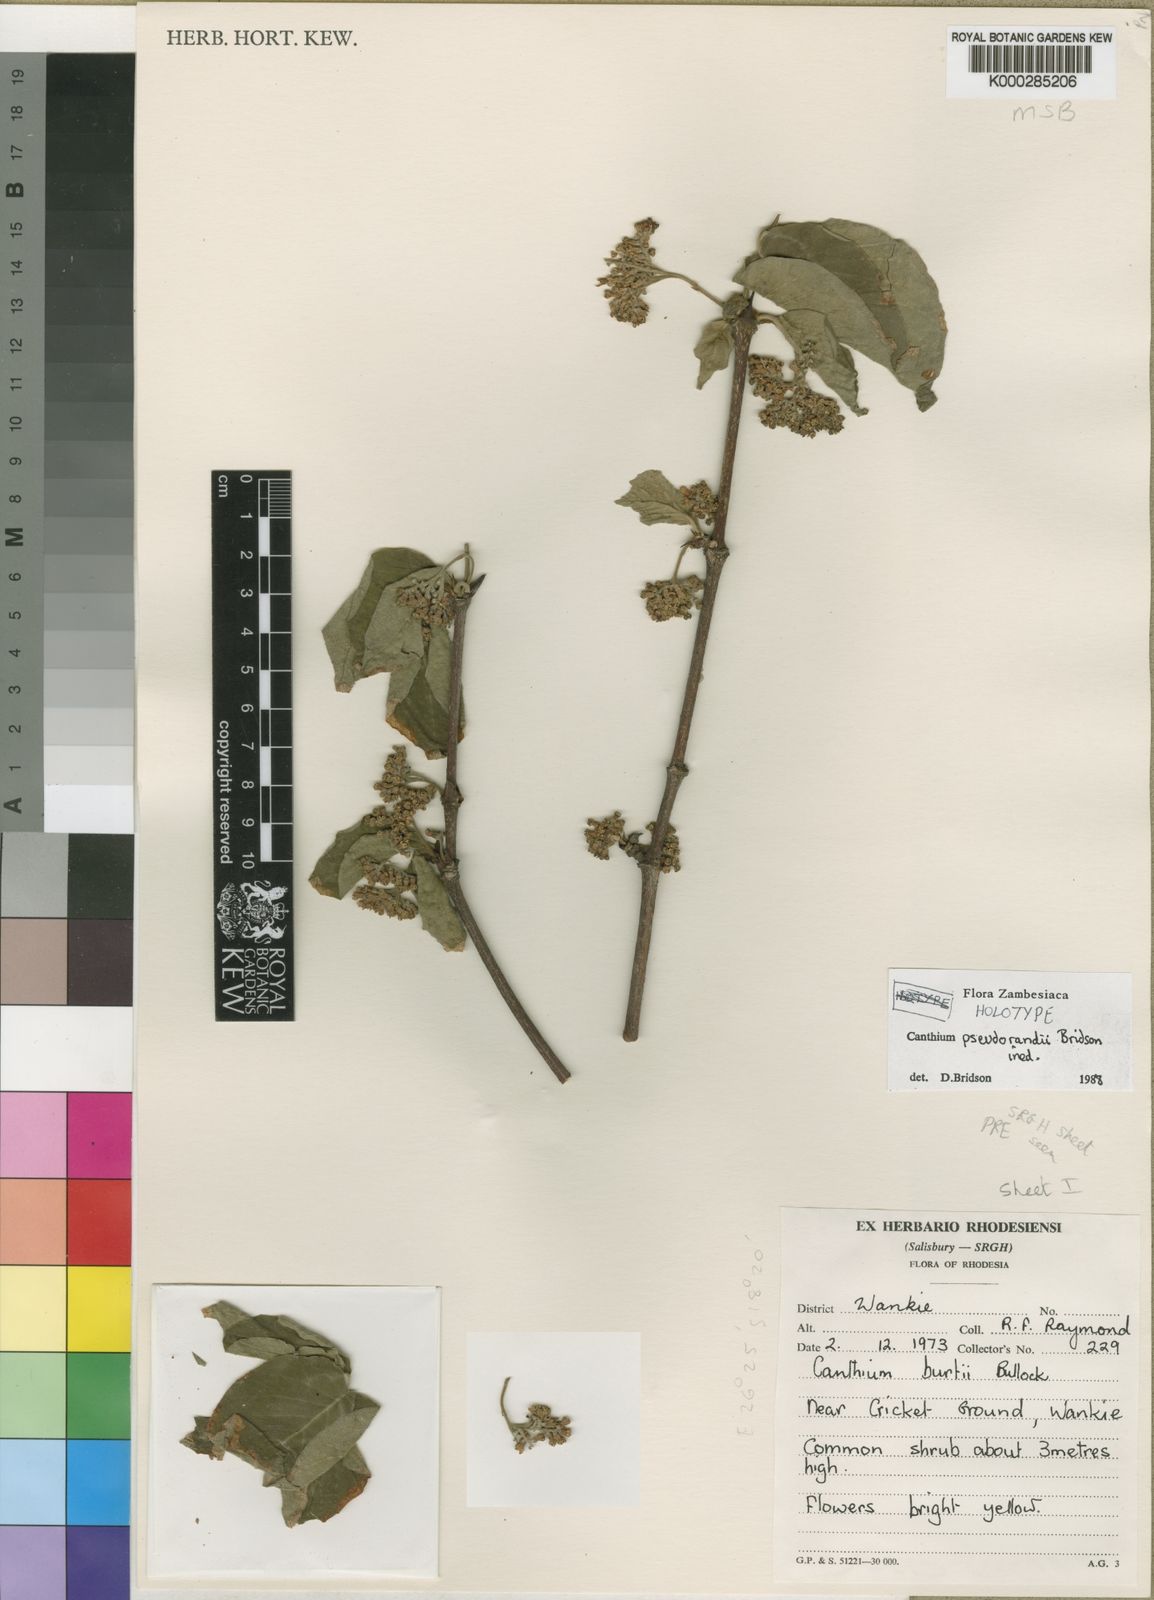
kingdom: Plantae
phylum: Tracheophyta
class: Magnoliopsida
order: Gentianales
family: Rubiaceae
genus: Afrocanthium
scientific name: Afrocanthium pseudorandii
